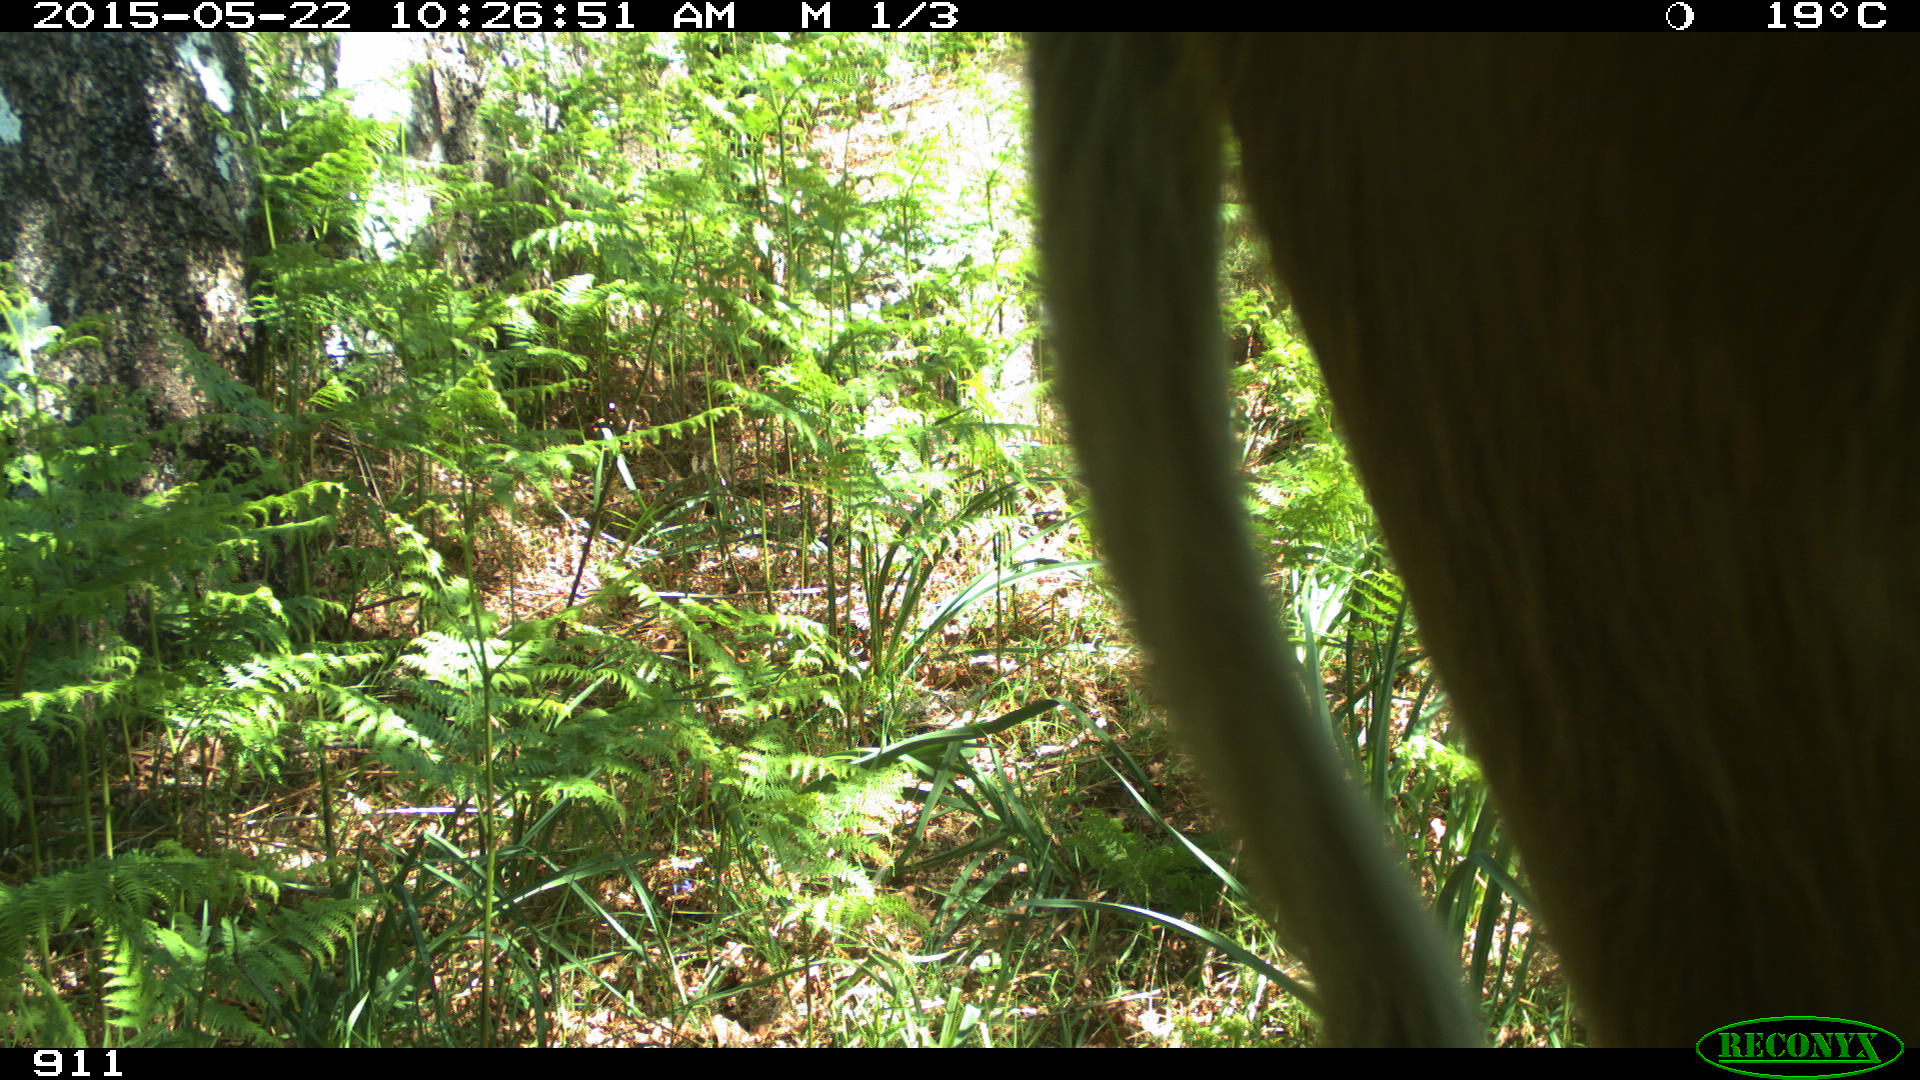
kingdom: Animalia
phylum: Chordata
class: Mammalia
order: Artiodactyla
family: Bovidae
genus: Bos
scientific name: Bos taurus
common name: Domesticated cattle
